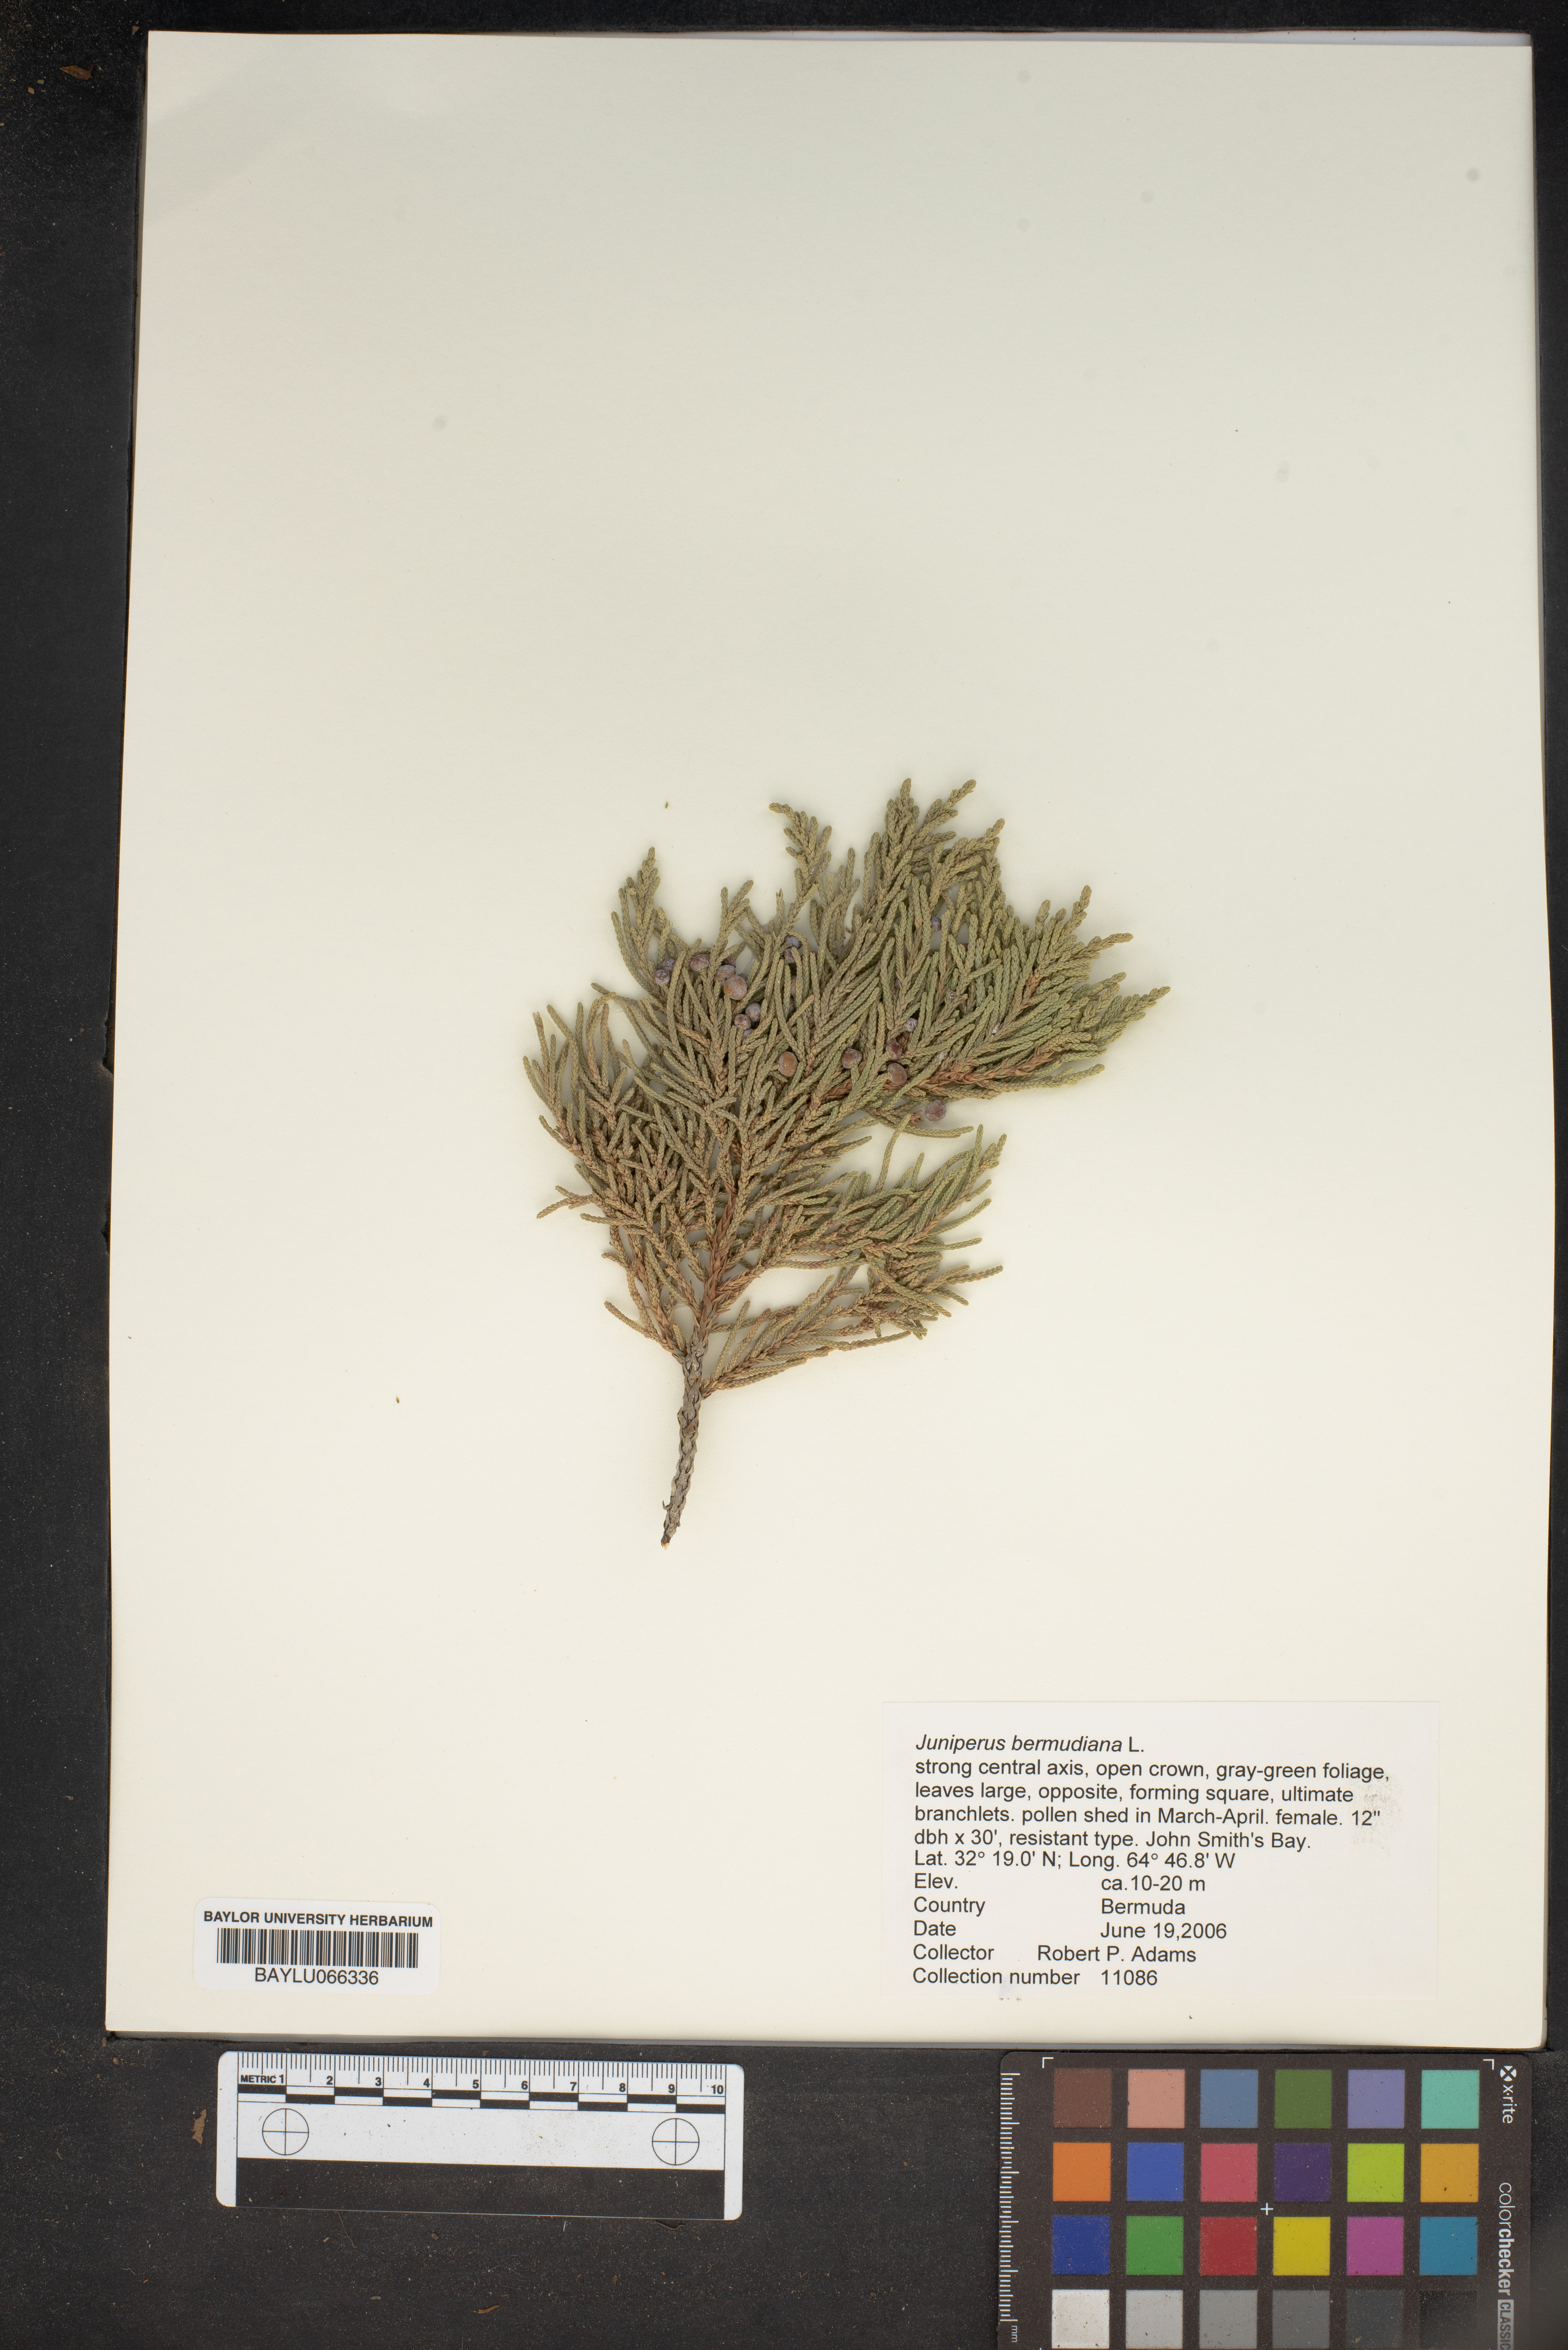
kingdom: Plantae
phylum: Tracheophyta
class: Pinopsida
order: Pinales
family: Cupressaceae
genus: Juniperus
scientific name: Juniperus bermudiana
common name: Bermuda juniper
